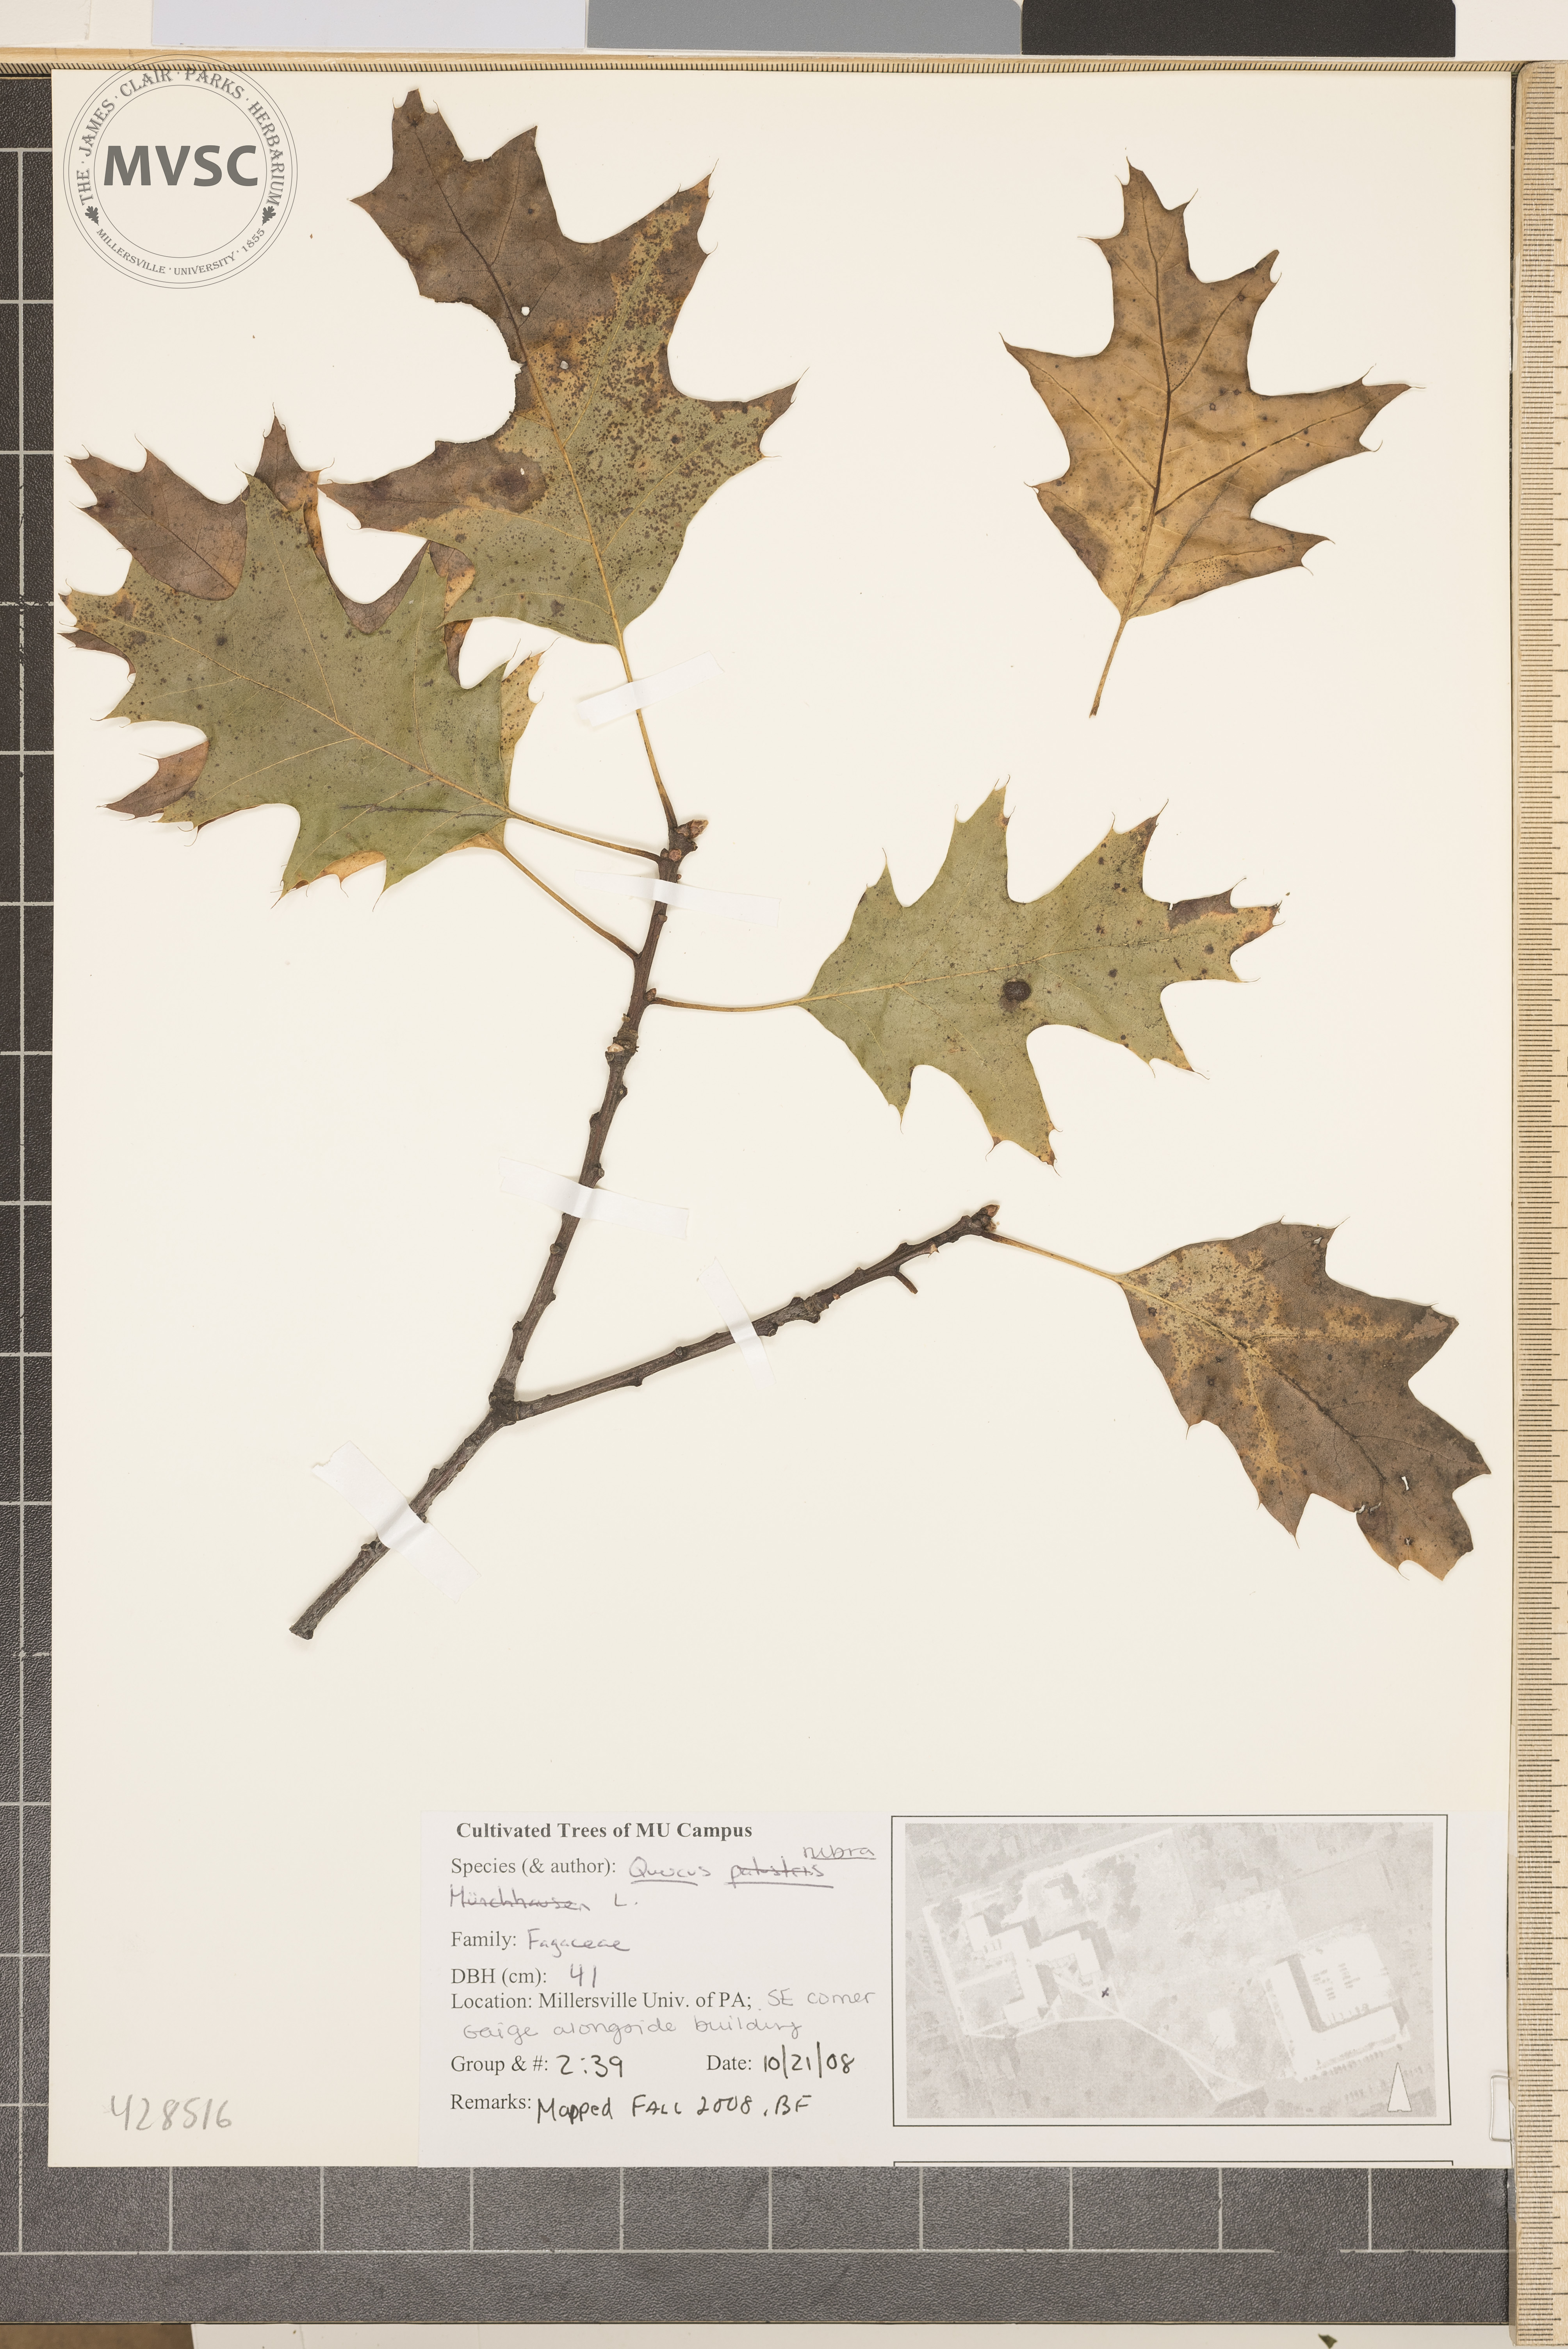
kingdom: Plantae
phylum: Tracheophyta
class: Magnoliopsida
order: Fagales
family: Fagaceae
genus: Quercus
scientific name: Quercus rubra
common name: Northern Red Oak
